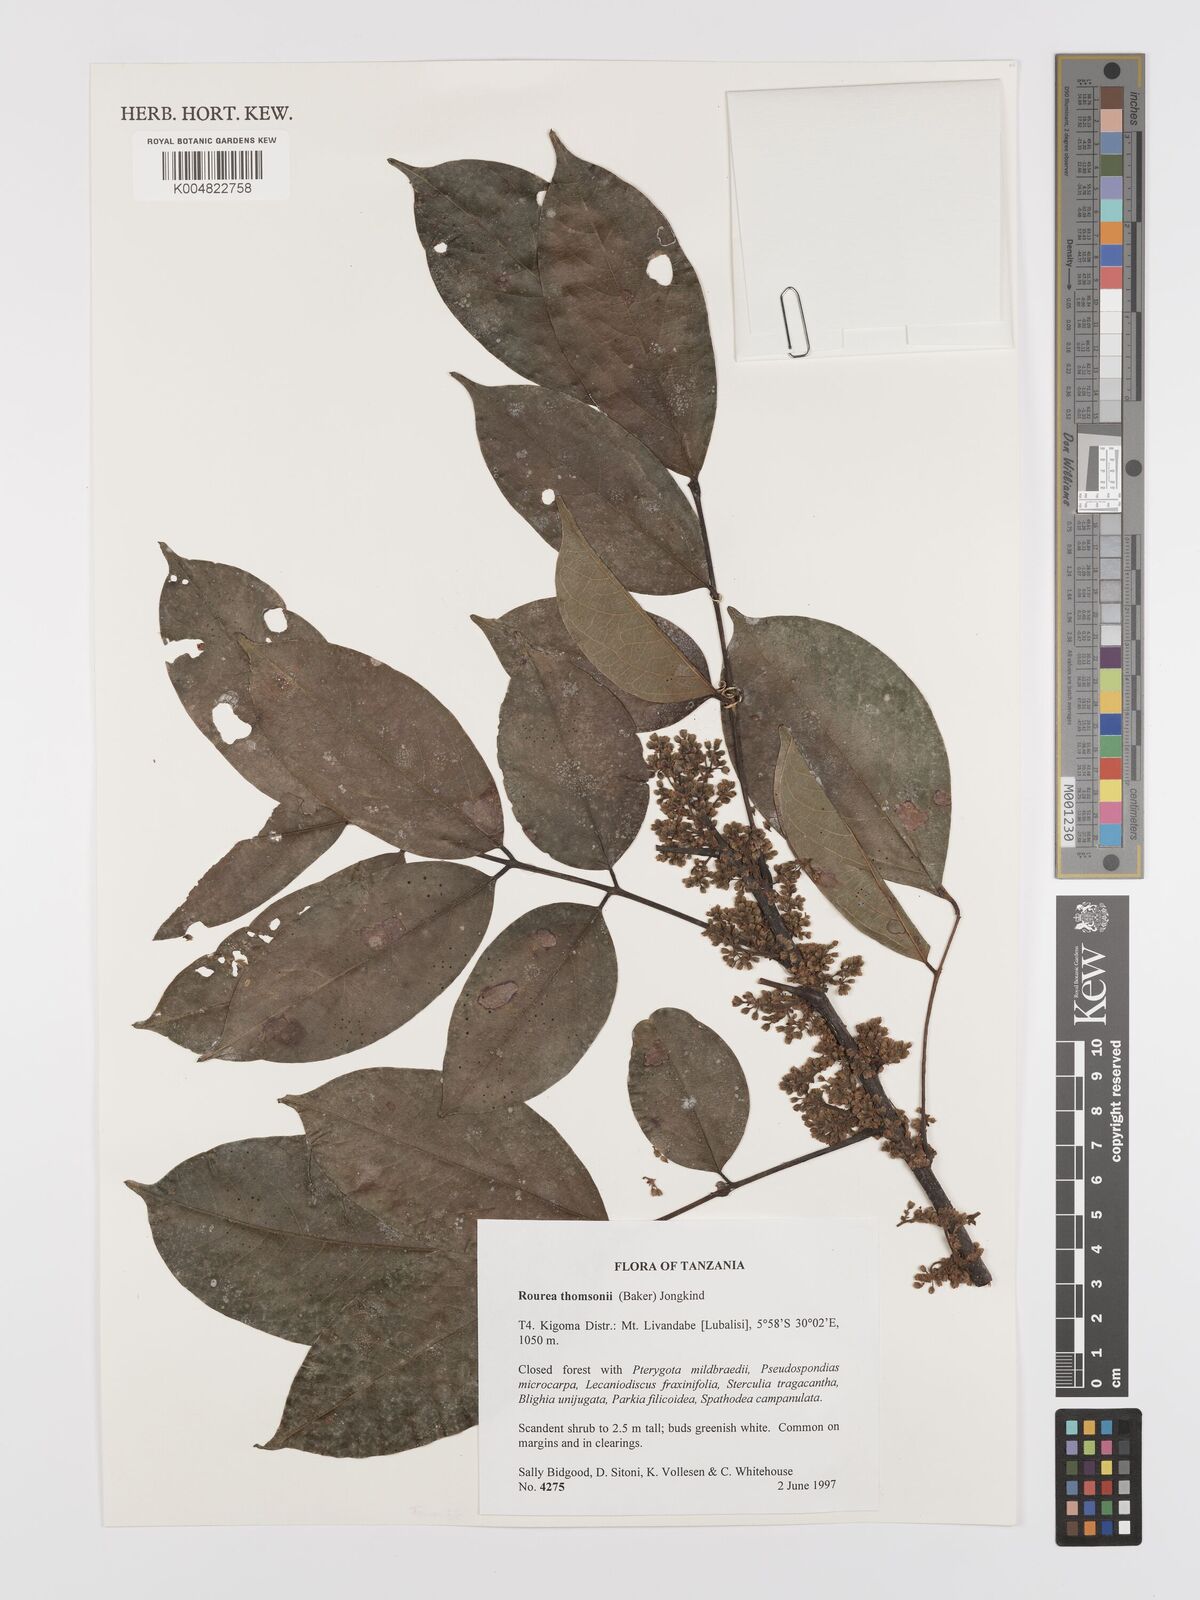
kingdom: Plantae
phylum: Tracheophyta
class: Magnoliopsida
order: Oxalidales
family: Connaraceae
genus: Rourea
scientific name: Rourea thomsonii
